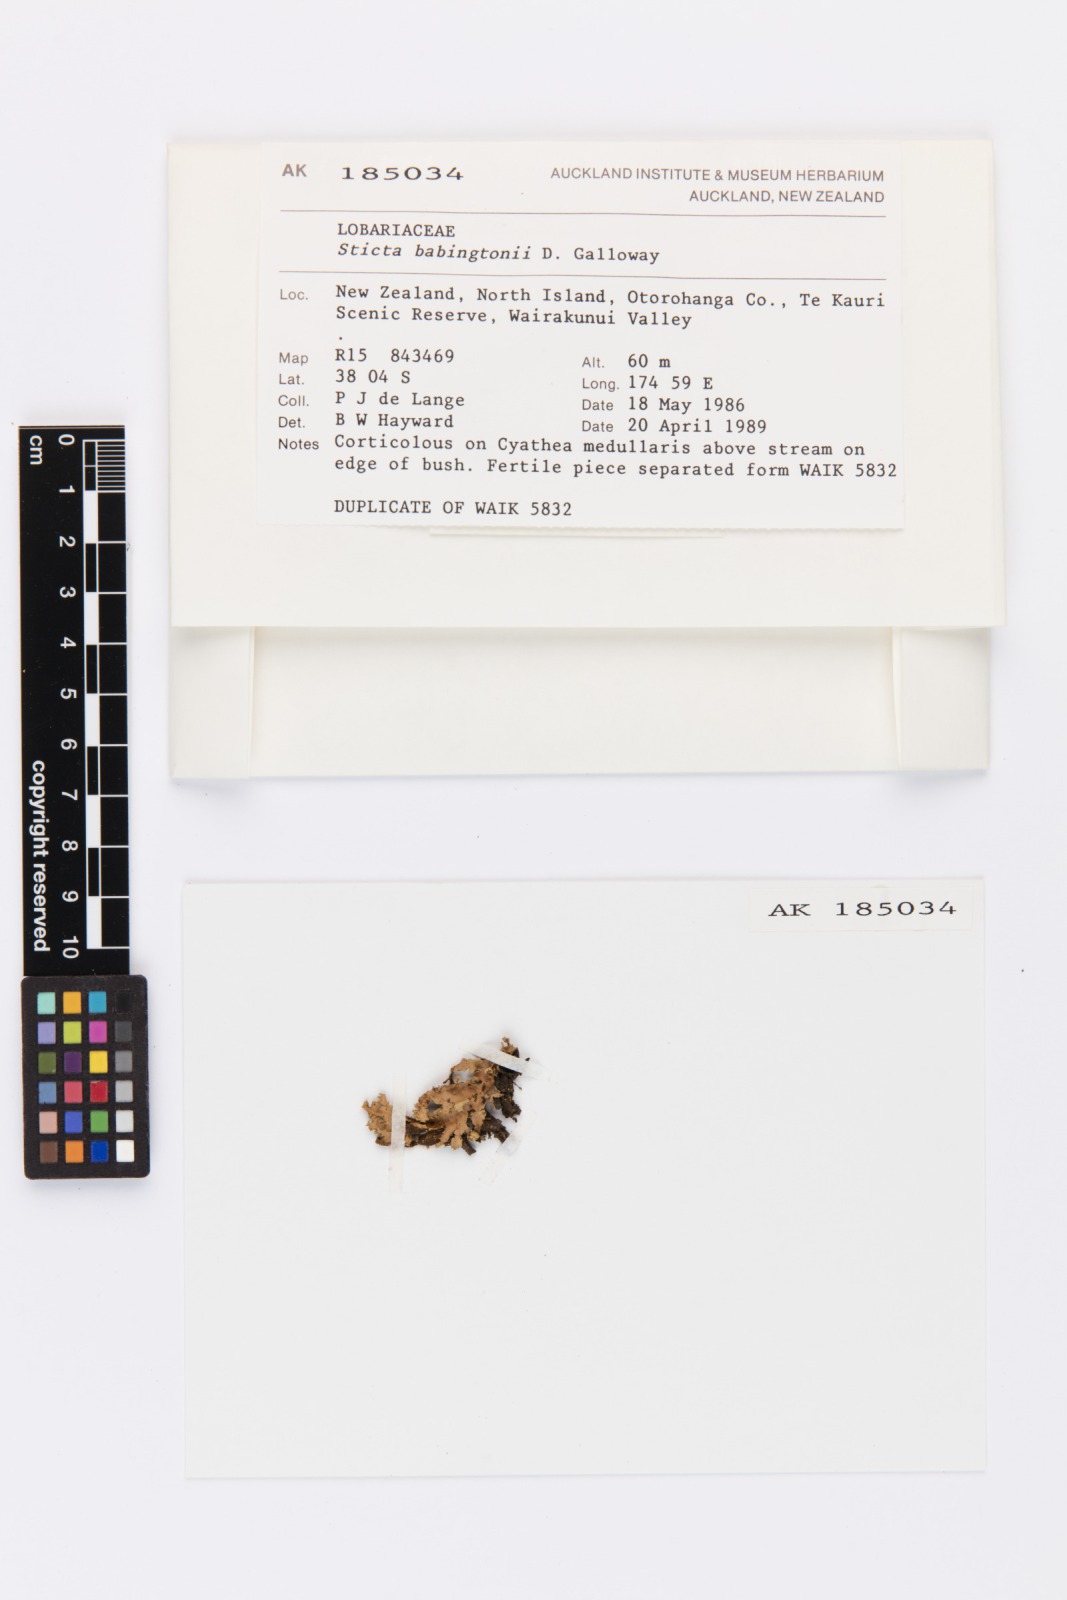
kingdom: Fungi
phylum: Ascomycota
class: Lecanoromycetes
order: Peltigerales
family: Lobariaceae
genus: Sticta
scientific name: Sticta babingtonii
